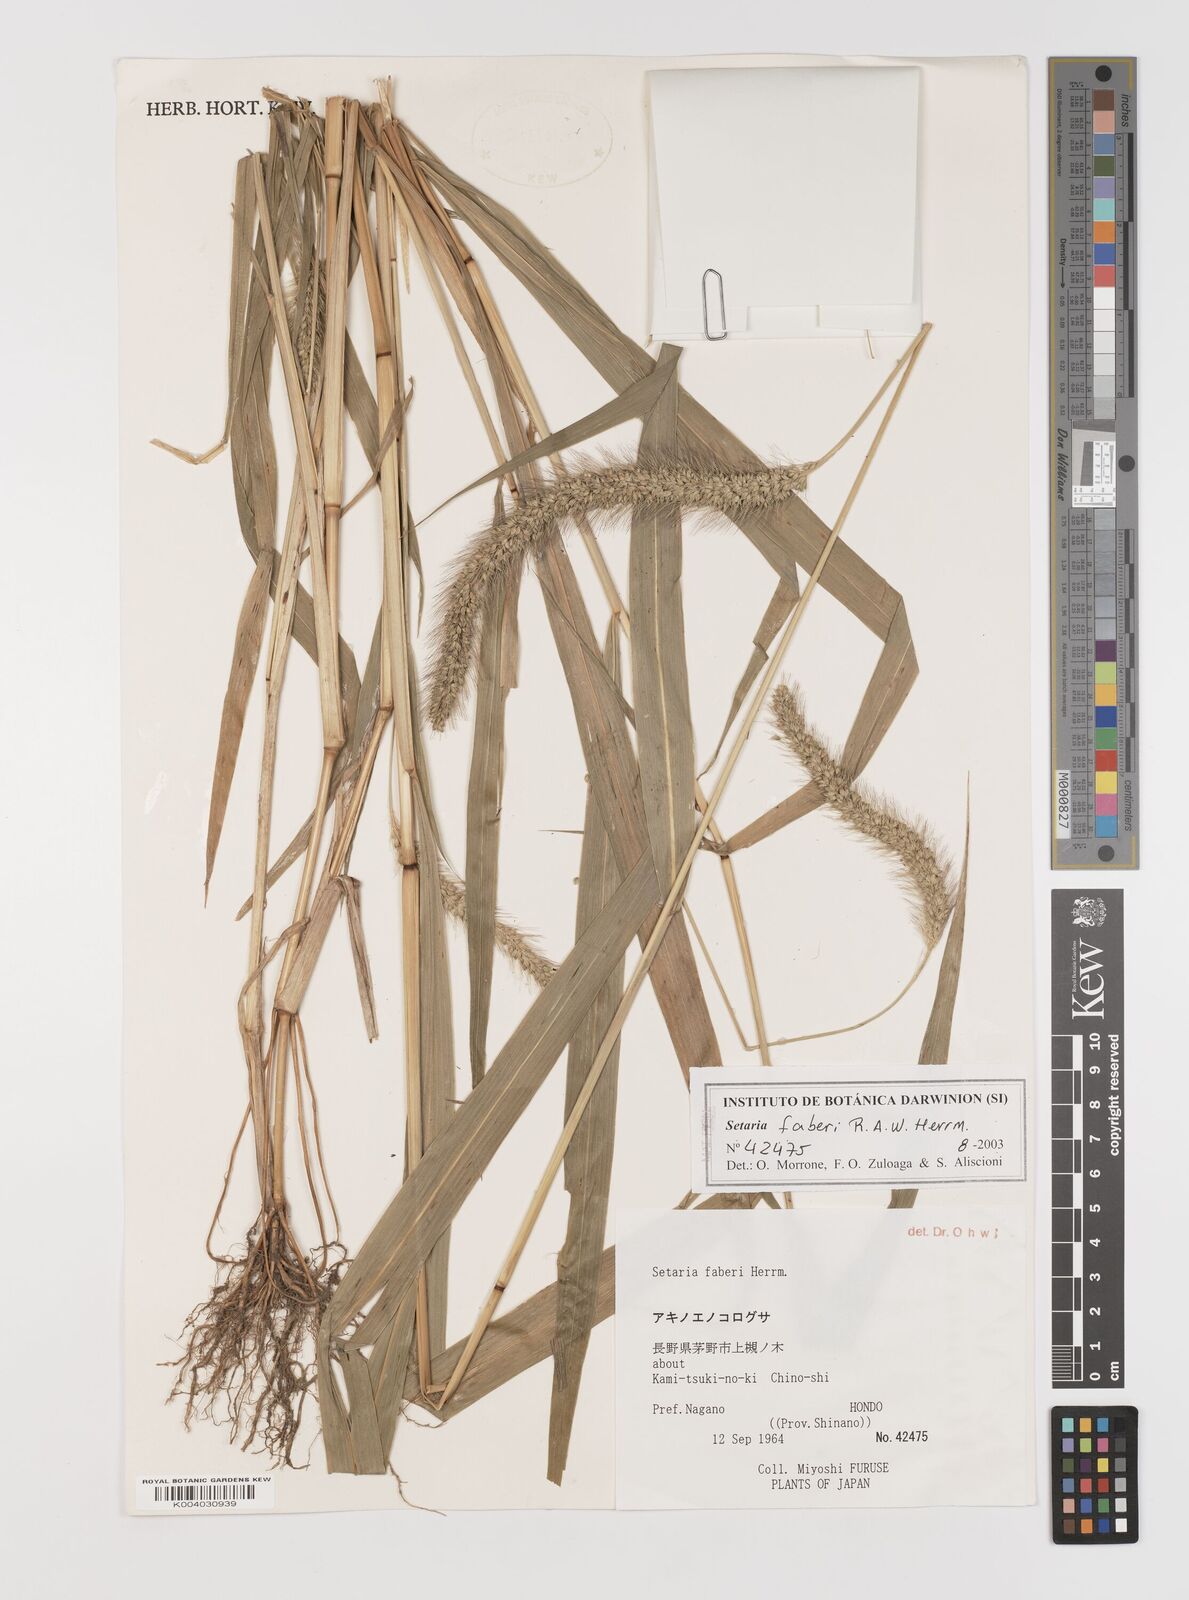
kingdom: Plantae
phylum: Tracheophyta
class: Liliopsida
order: Poales
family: Poaceae
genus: Setaria
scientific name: Setaria faberi
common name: Nodding bristle-grass
